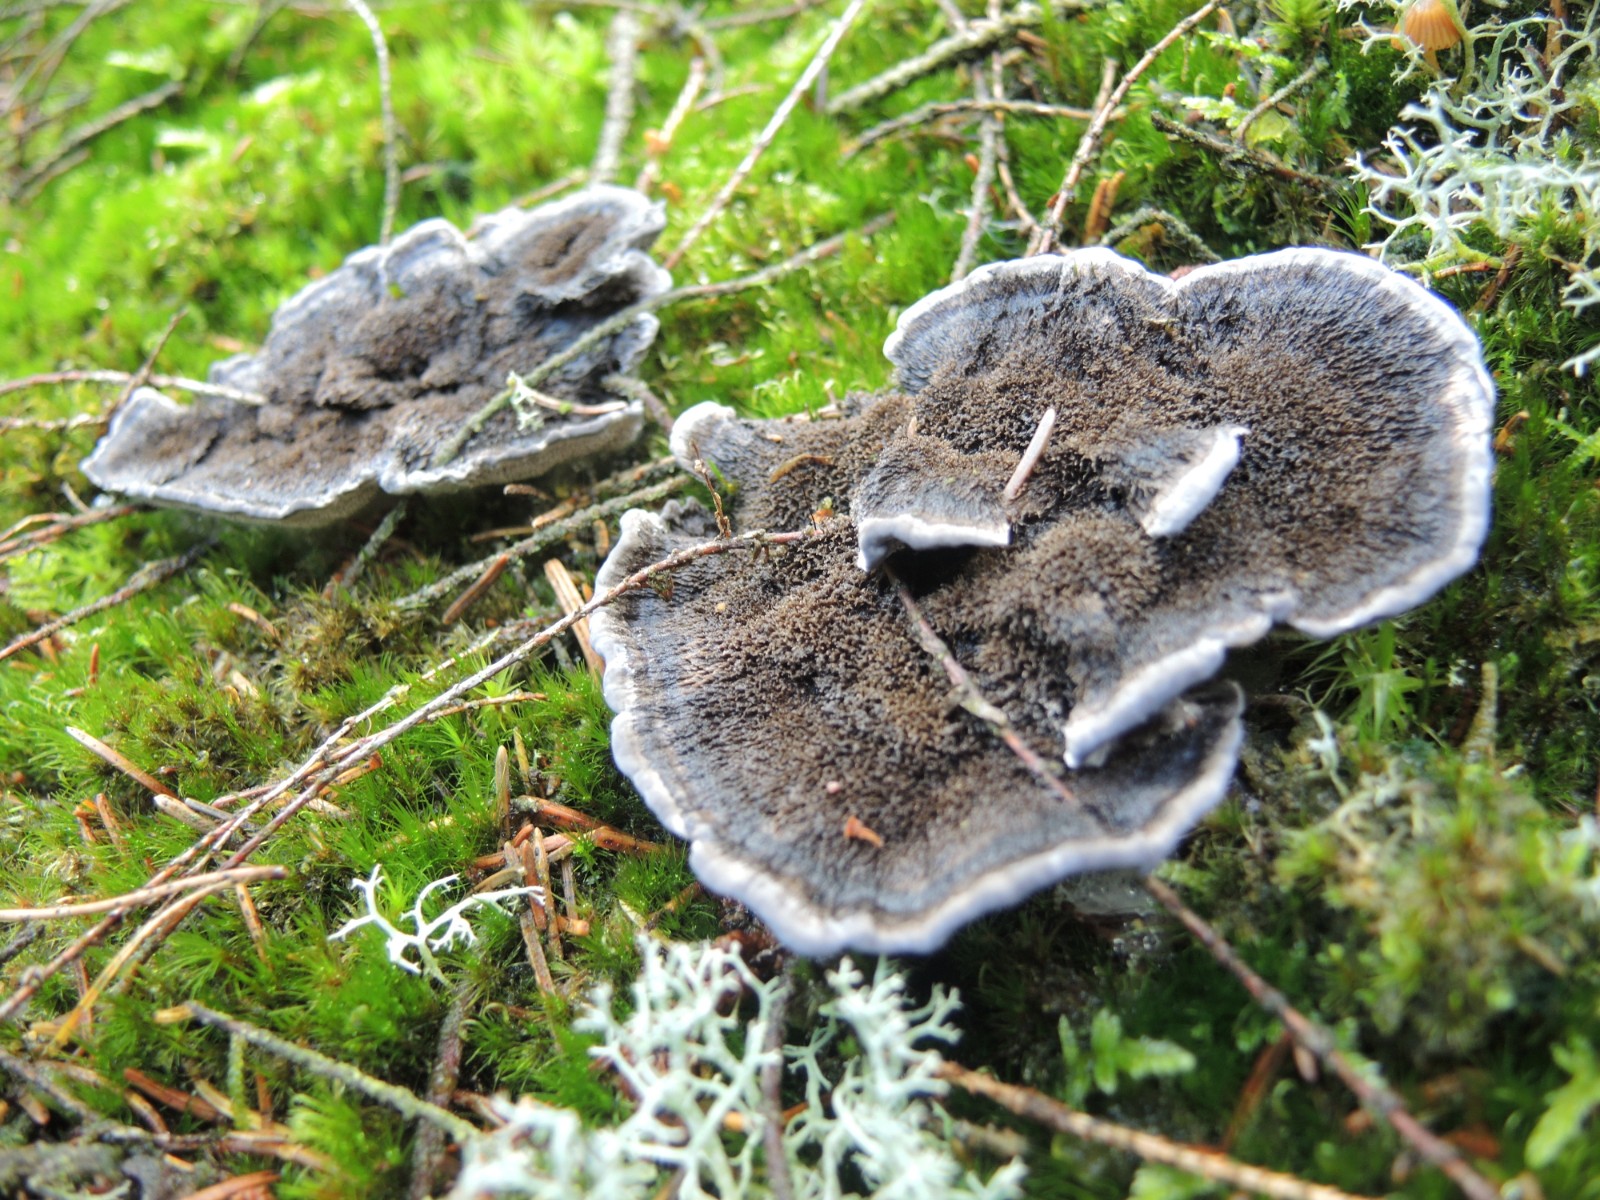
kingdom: Fungi
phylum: Basidiomycota
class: Agaricomycetes
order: Thelephorales
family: Thelephoraceae
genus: Phellodon
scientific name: Phellodon
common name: mørk duftpigsvamp
